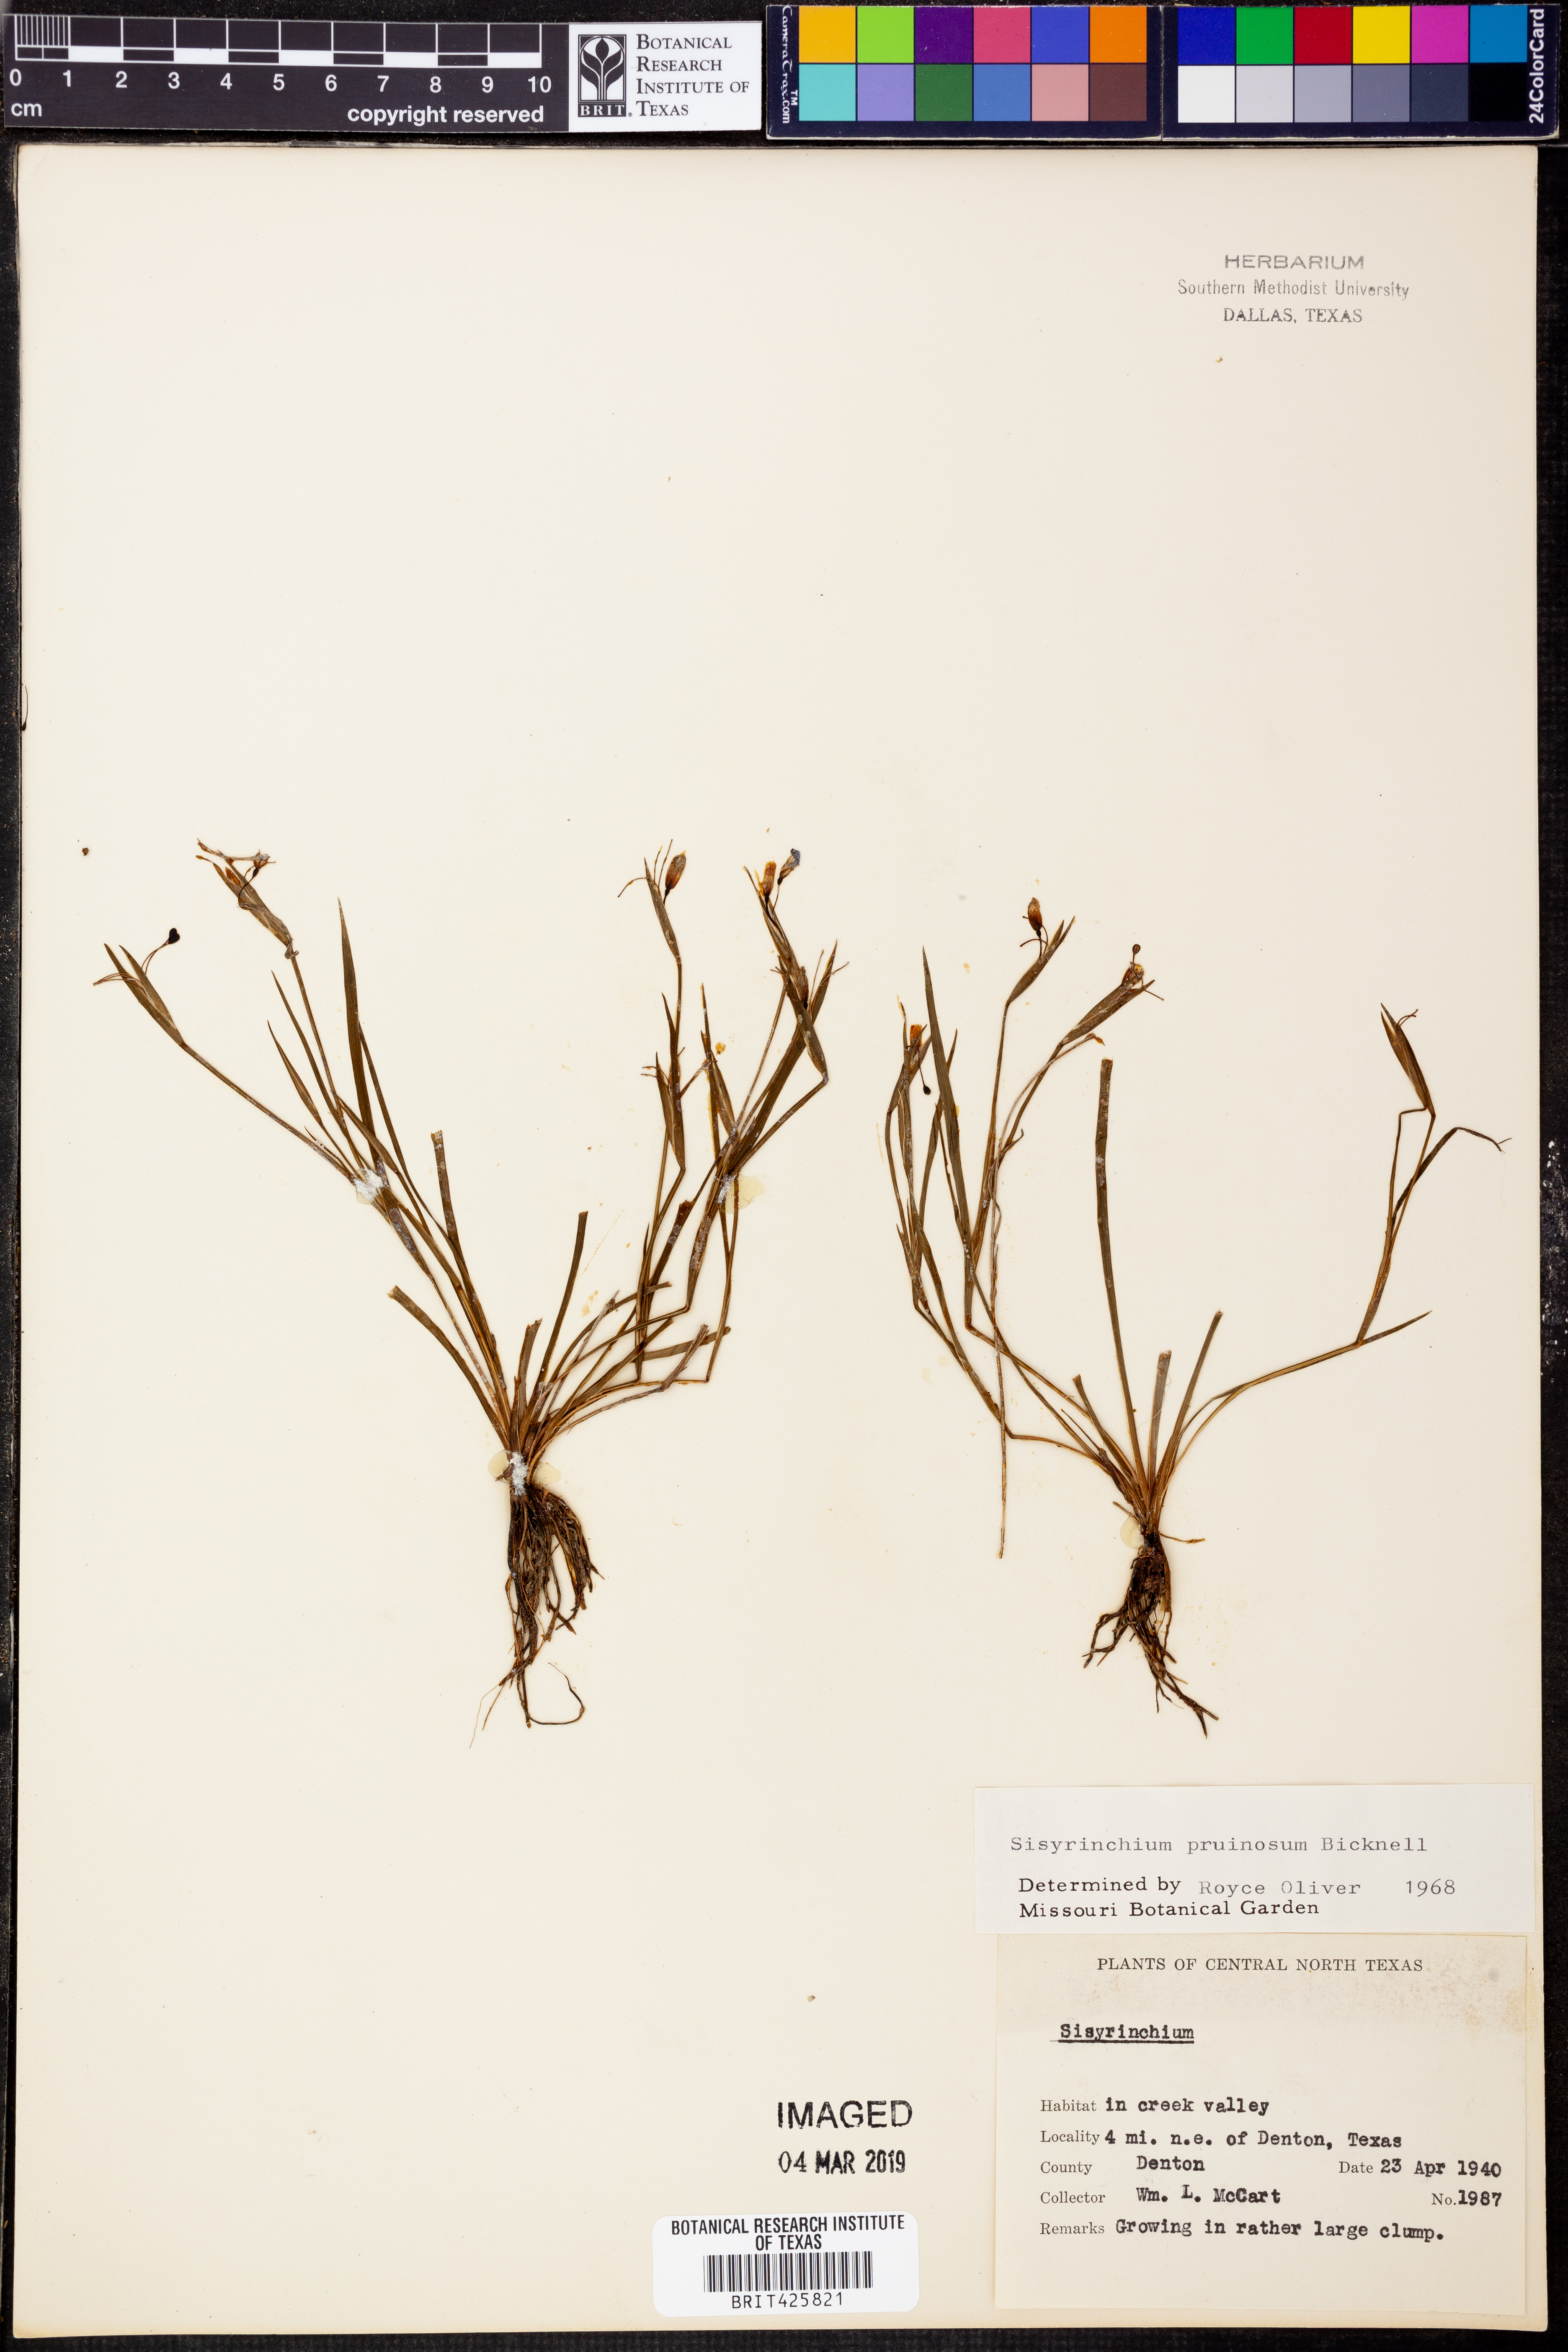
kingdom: Plantae
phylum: Tracheophyta
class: Liliopsida
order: Asparagales
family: Iridaceae
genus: Sisyrinchium
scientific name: Sisyrinchium pruinosum
